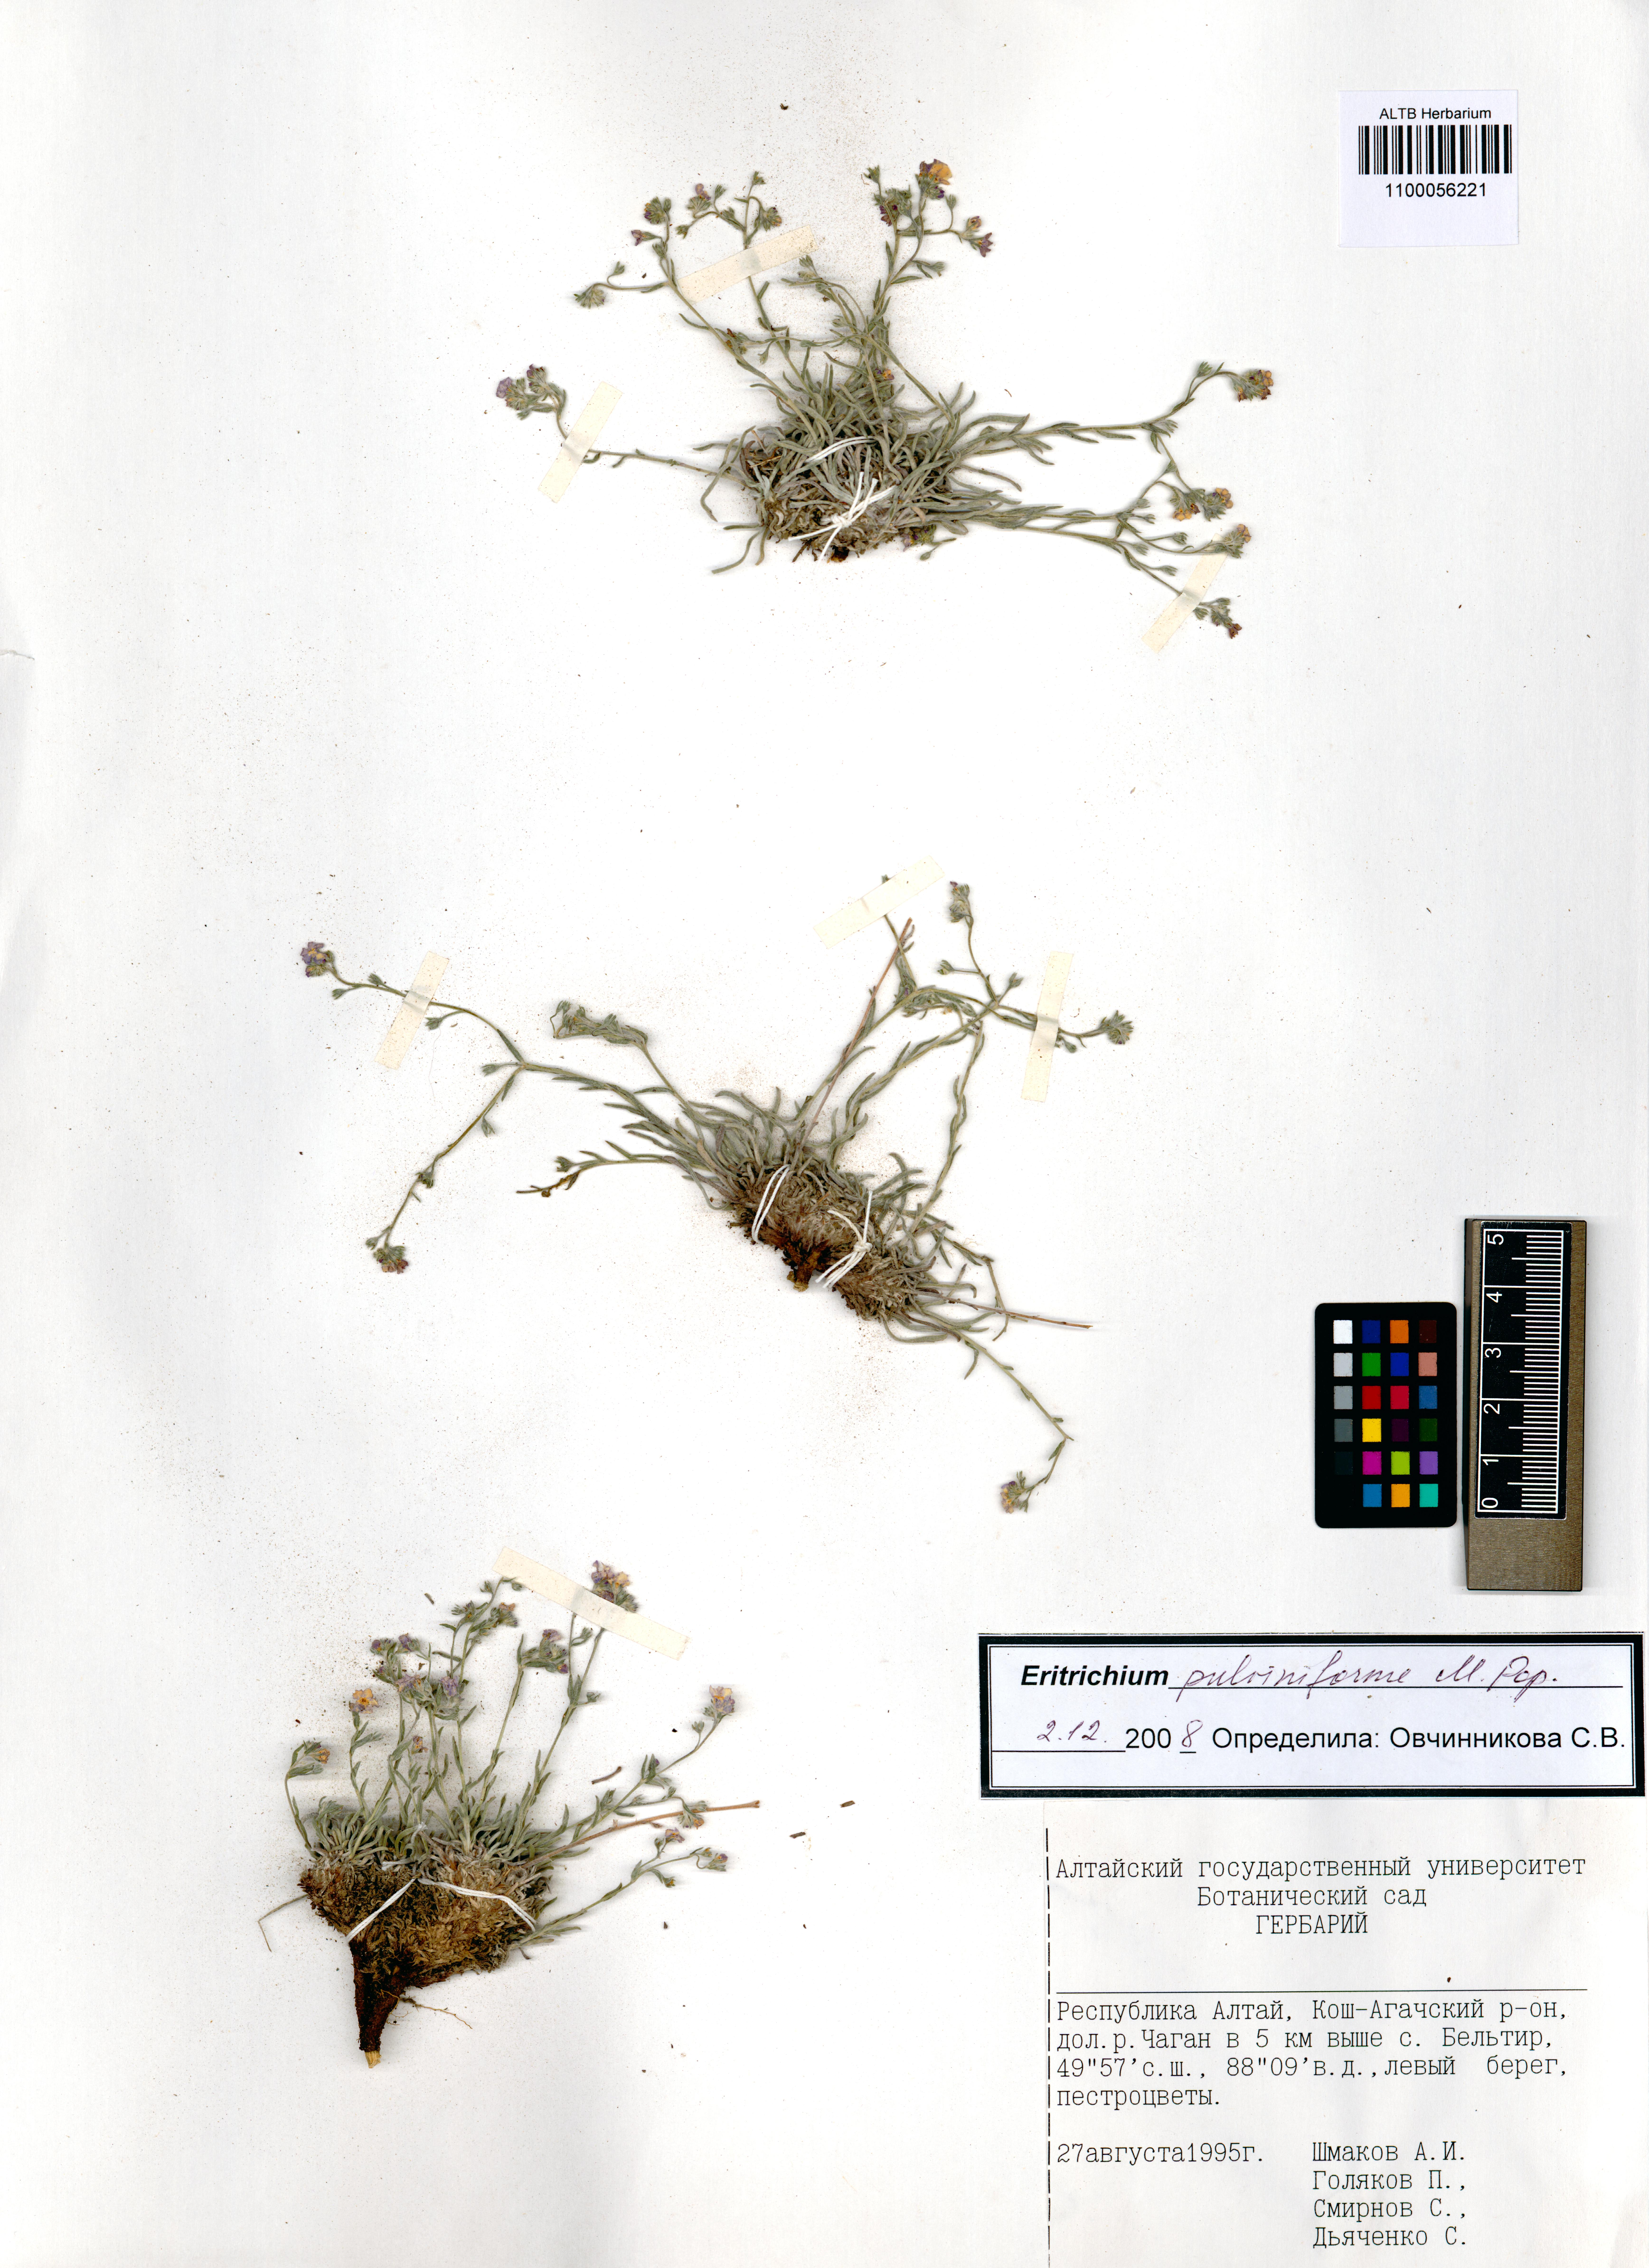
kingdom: Plantae
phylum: Tracheophyta
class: Magnoliopsida
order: Boraginales
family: Boraginaceae
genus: Eritrichium
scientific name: Eritrichium pauciflorum
